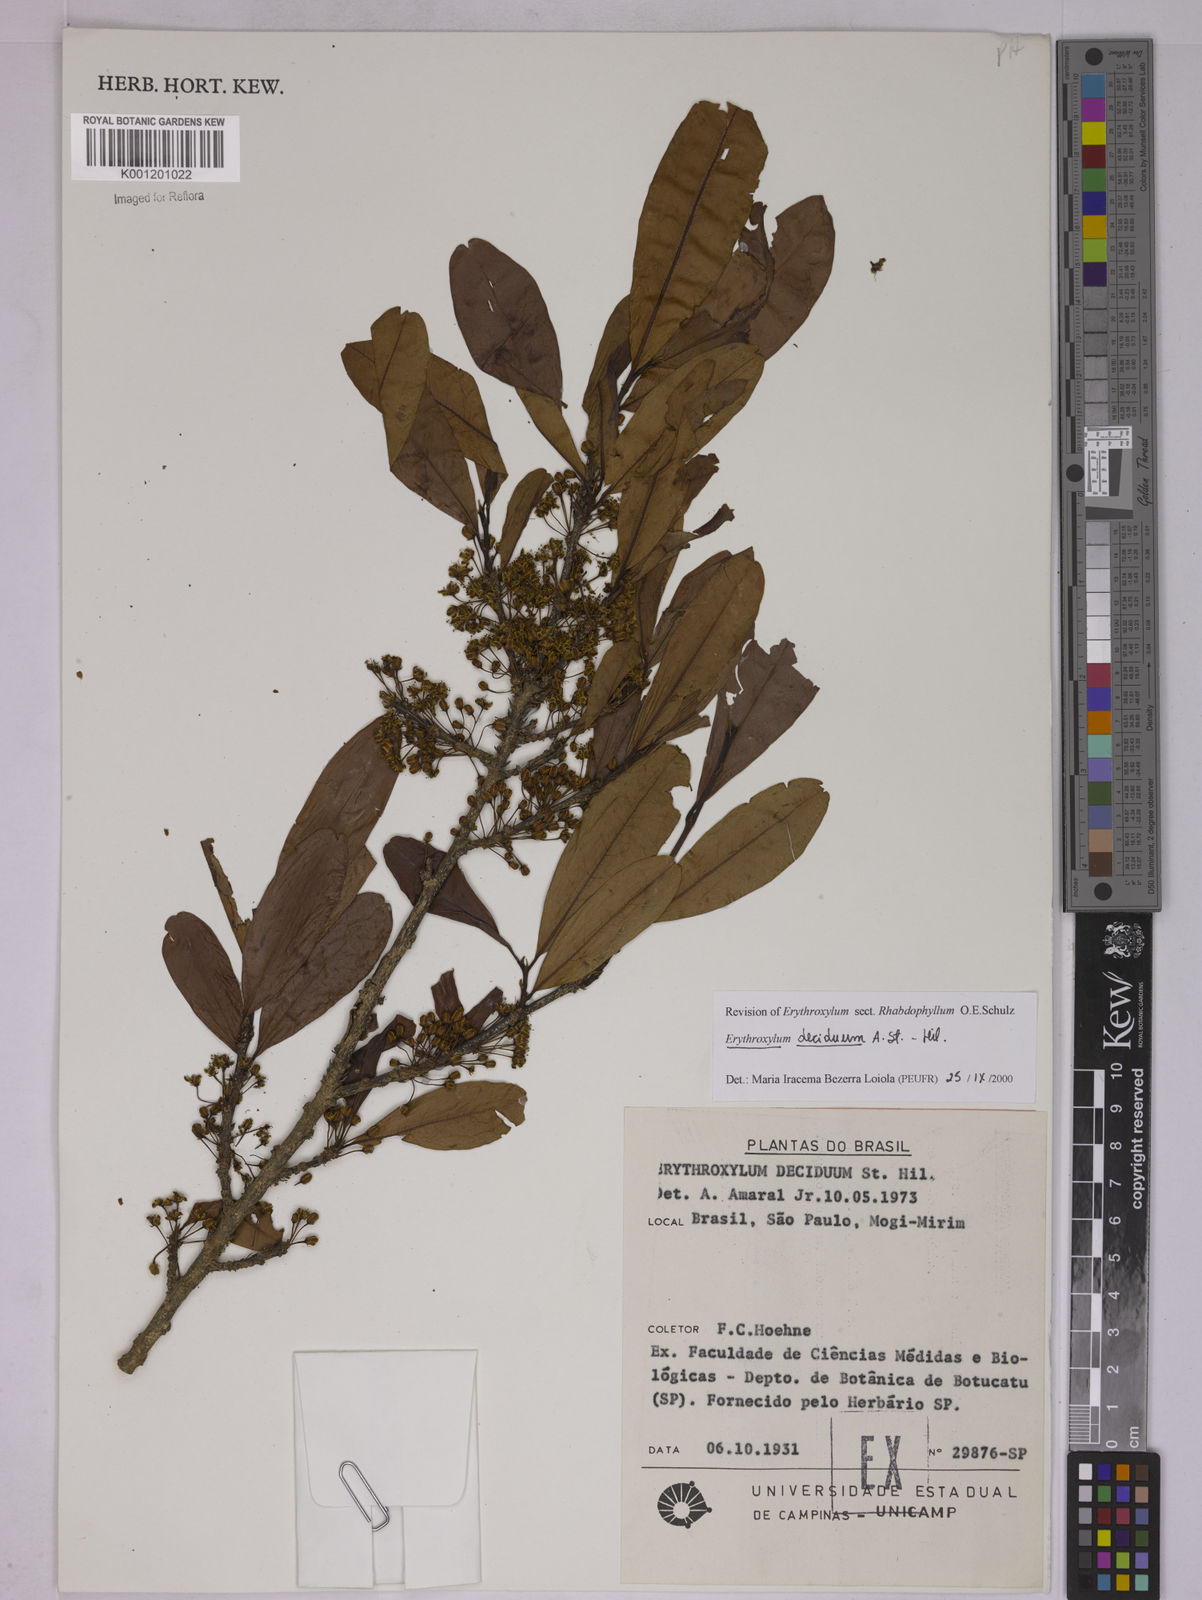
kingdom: Plantae
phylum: Tracheophyta
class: Magnoliopsida
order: Malpighiales
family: Erythroxylaceae
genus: Erythroxylum
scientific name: Erythroxylum deciduum
